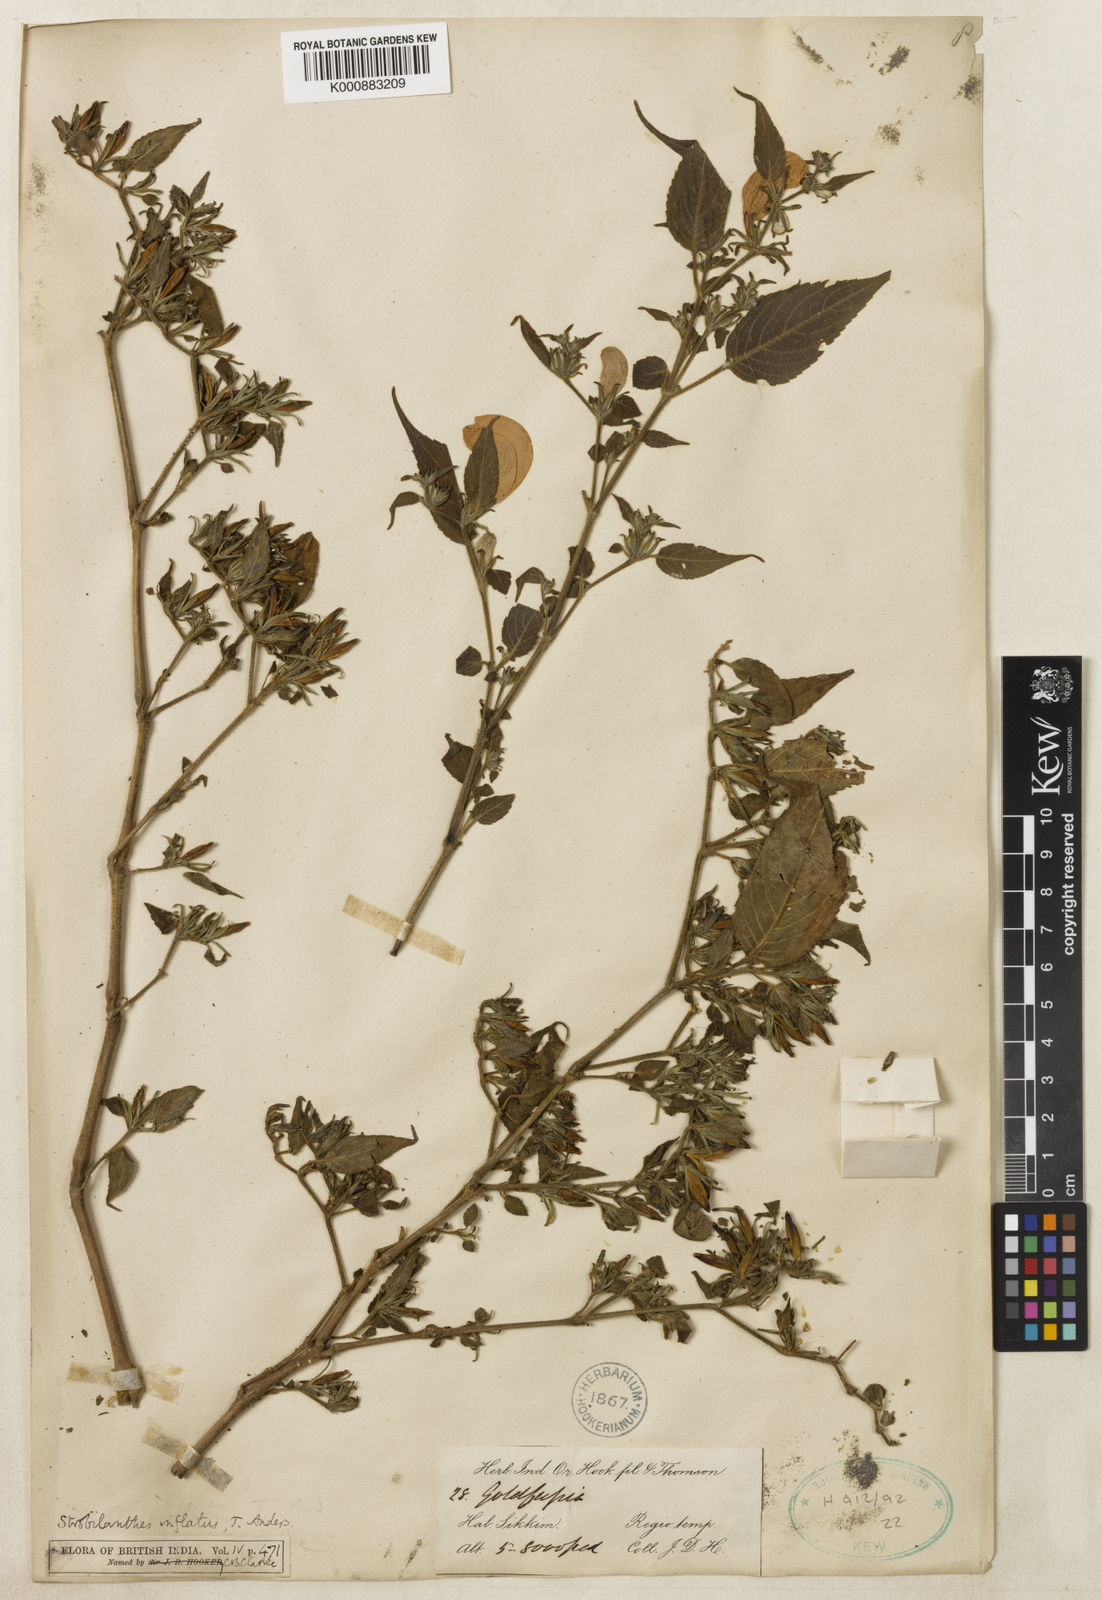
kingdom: Plantae
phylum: Tracheophyta
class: Magnoliopsida
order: Lamiales
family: Acanthaceae
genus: Strobilanthes
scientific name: Strobilanthes inflata
